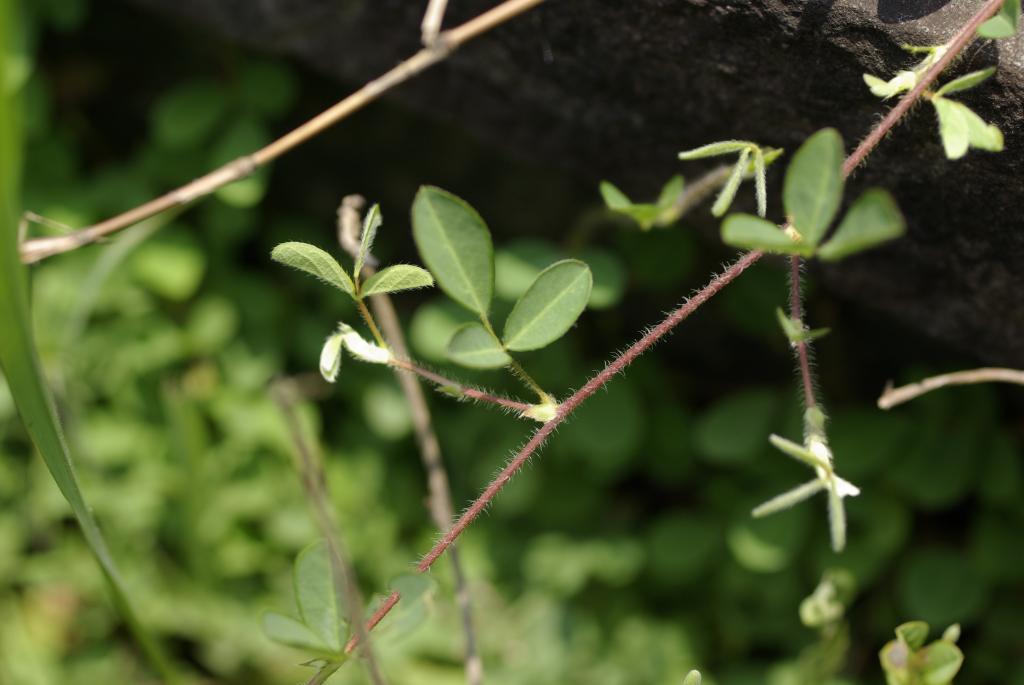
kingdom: Plantae
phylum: Tracheophyta
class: Magnoliopsida
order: Fabales
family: Fabaceae
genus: Grona
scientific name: Grona heterophylla
